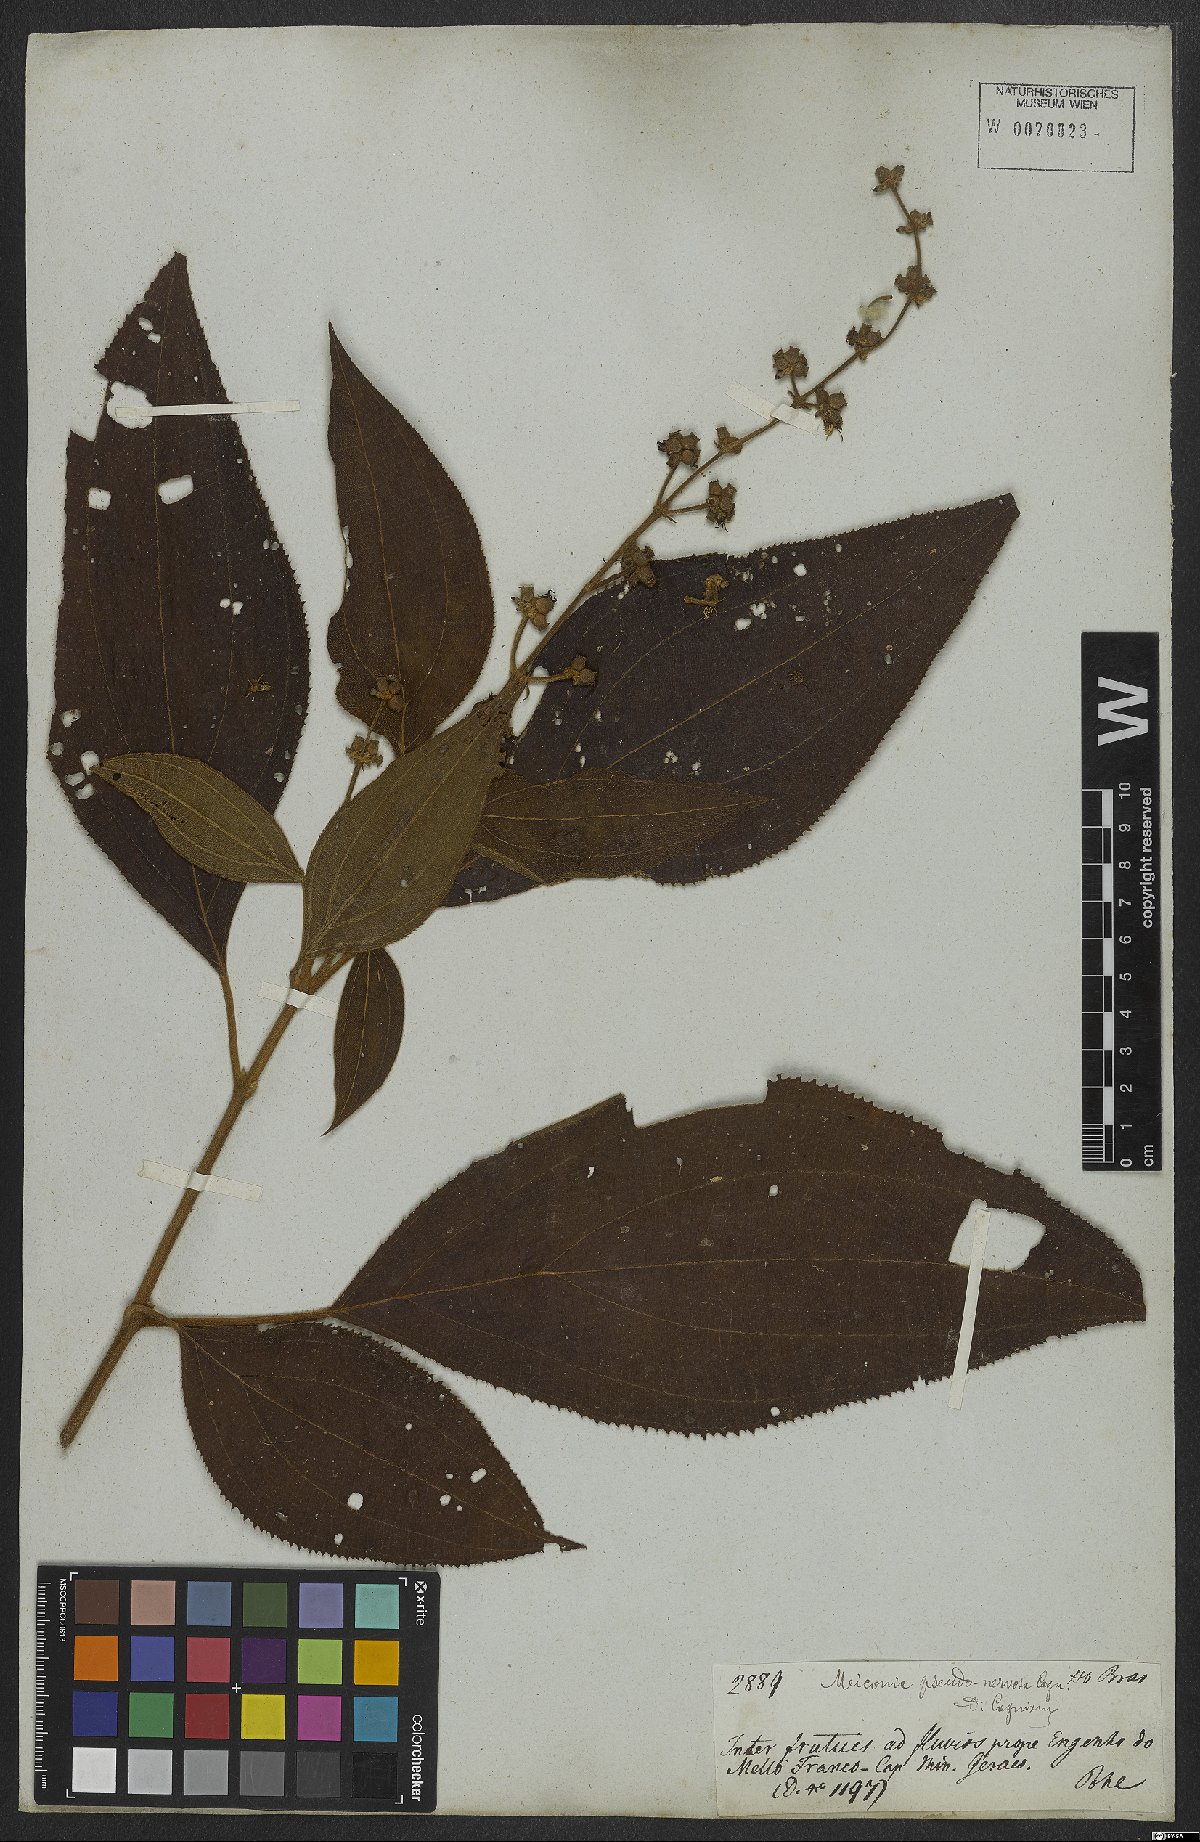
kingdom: Plantae
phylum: Tracheophyta
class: Magnoliopsida
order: Myrtales
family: Melastomataceae
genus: Miconia
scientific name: Miconia pseudonervosa
